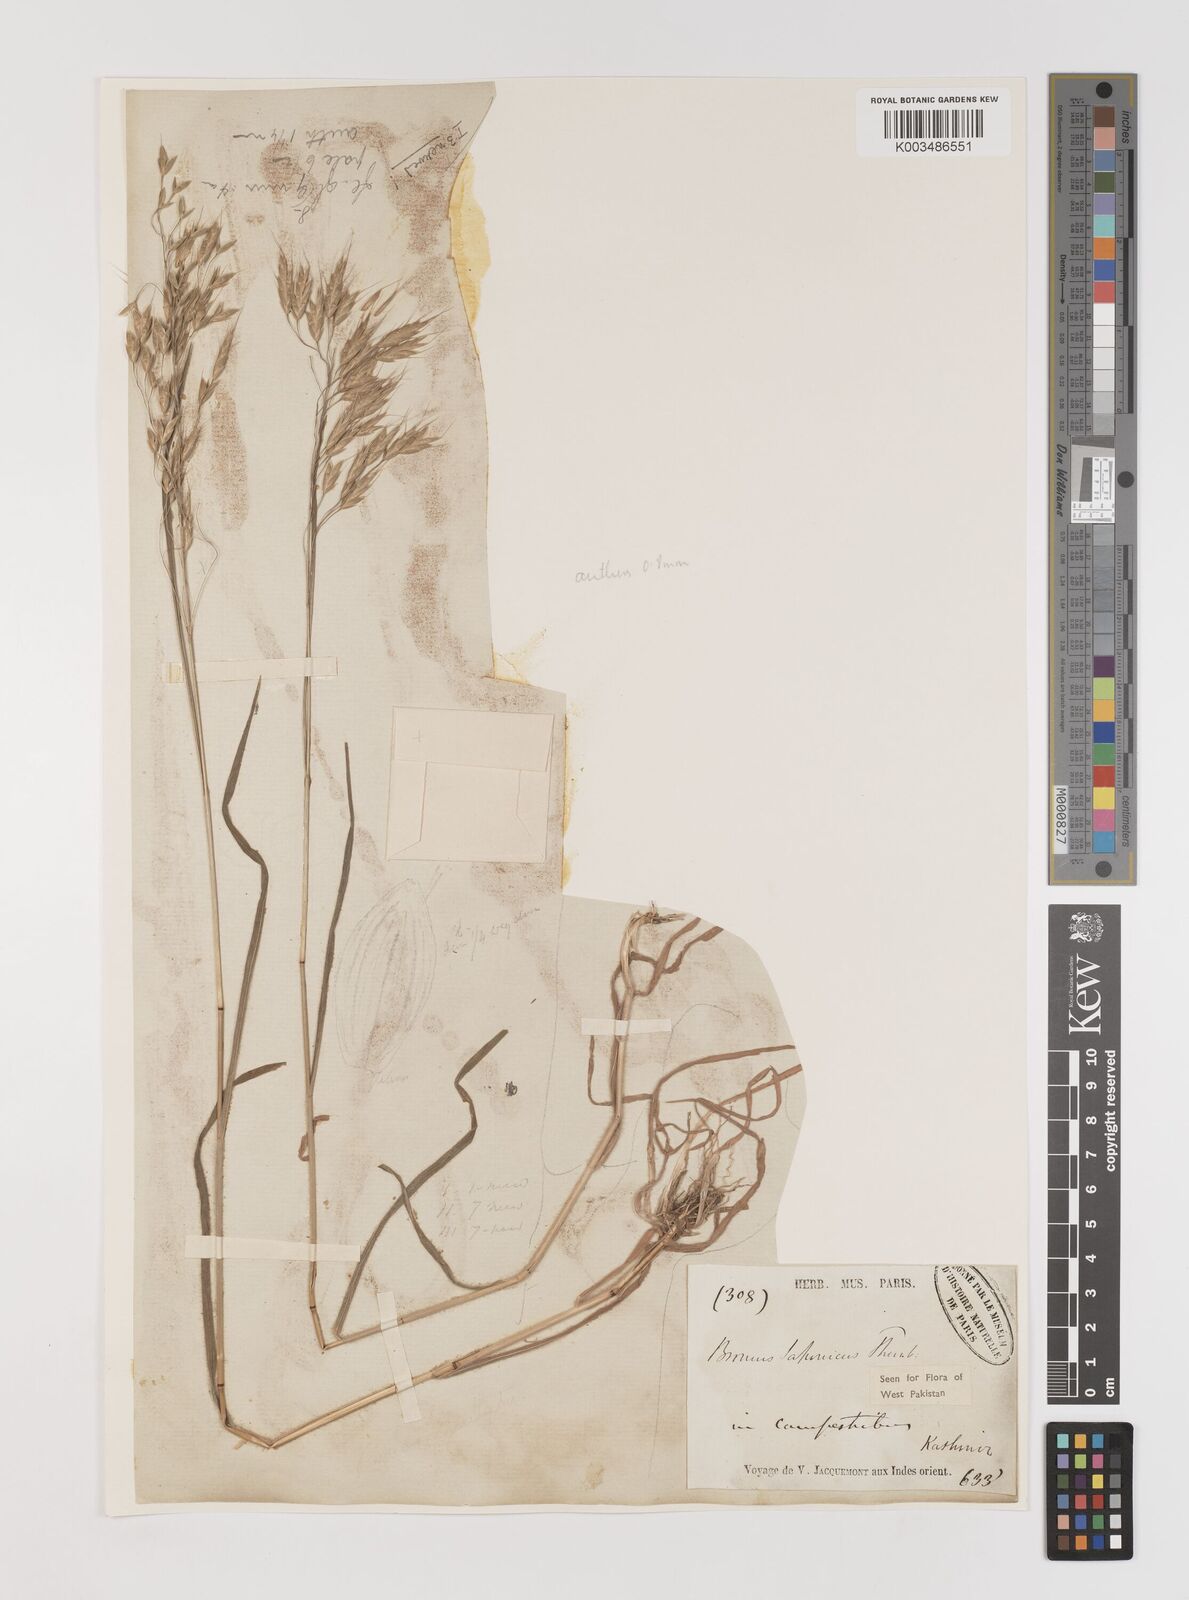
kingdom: Plantae
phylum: Tracheophyta
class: Liliopsida
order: Poales
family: Poaceae
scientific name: Poaceae
